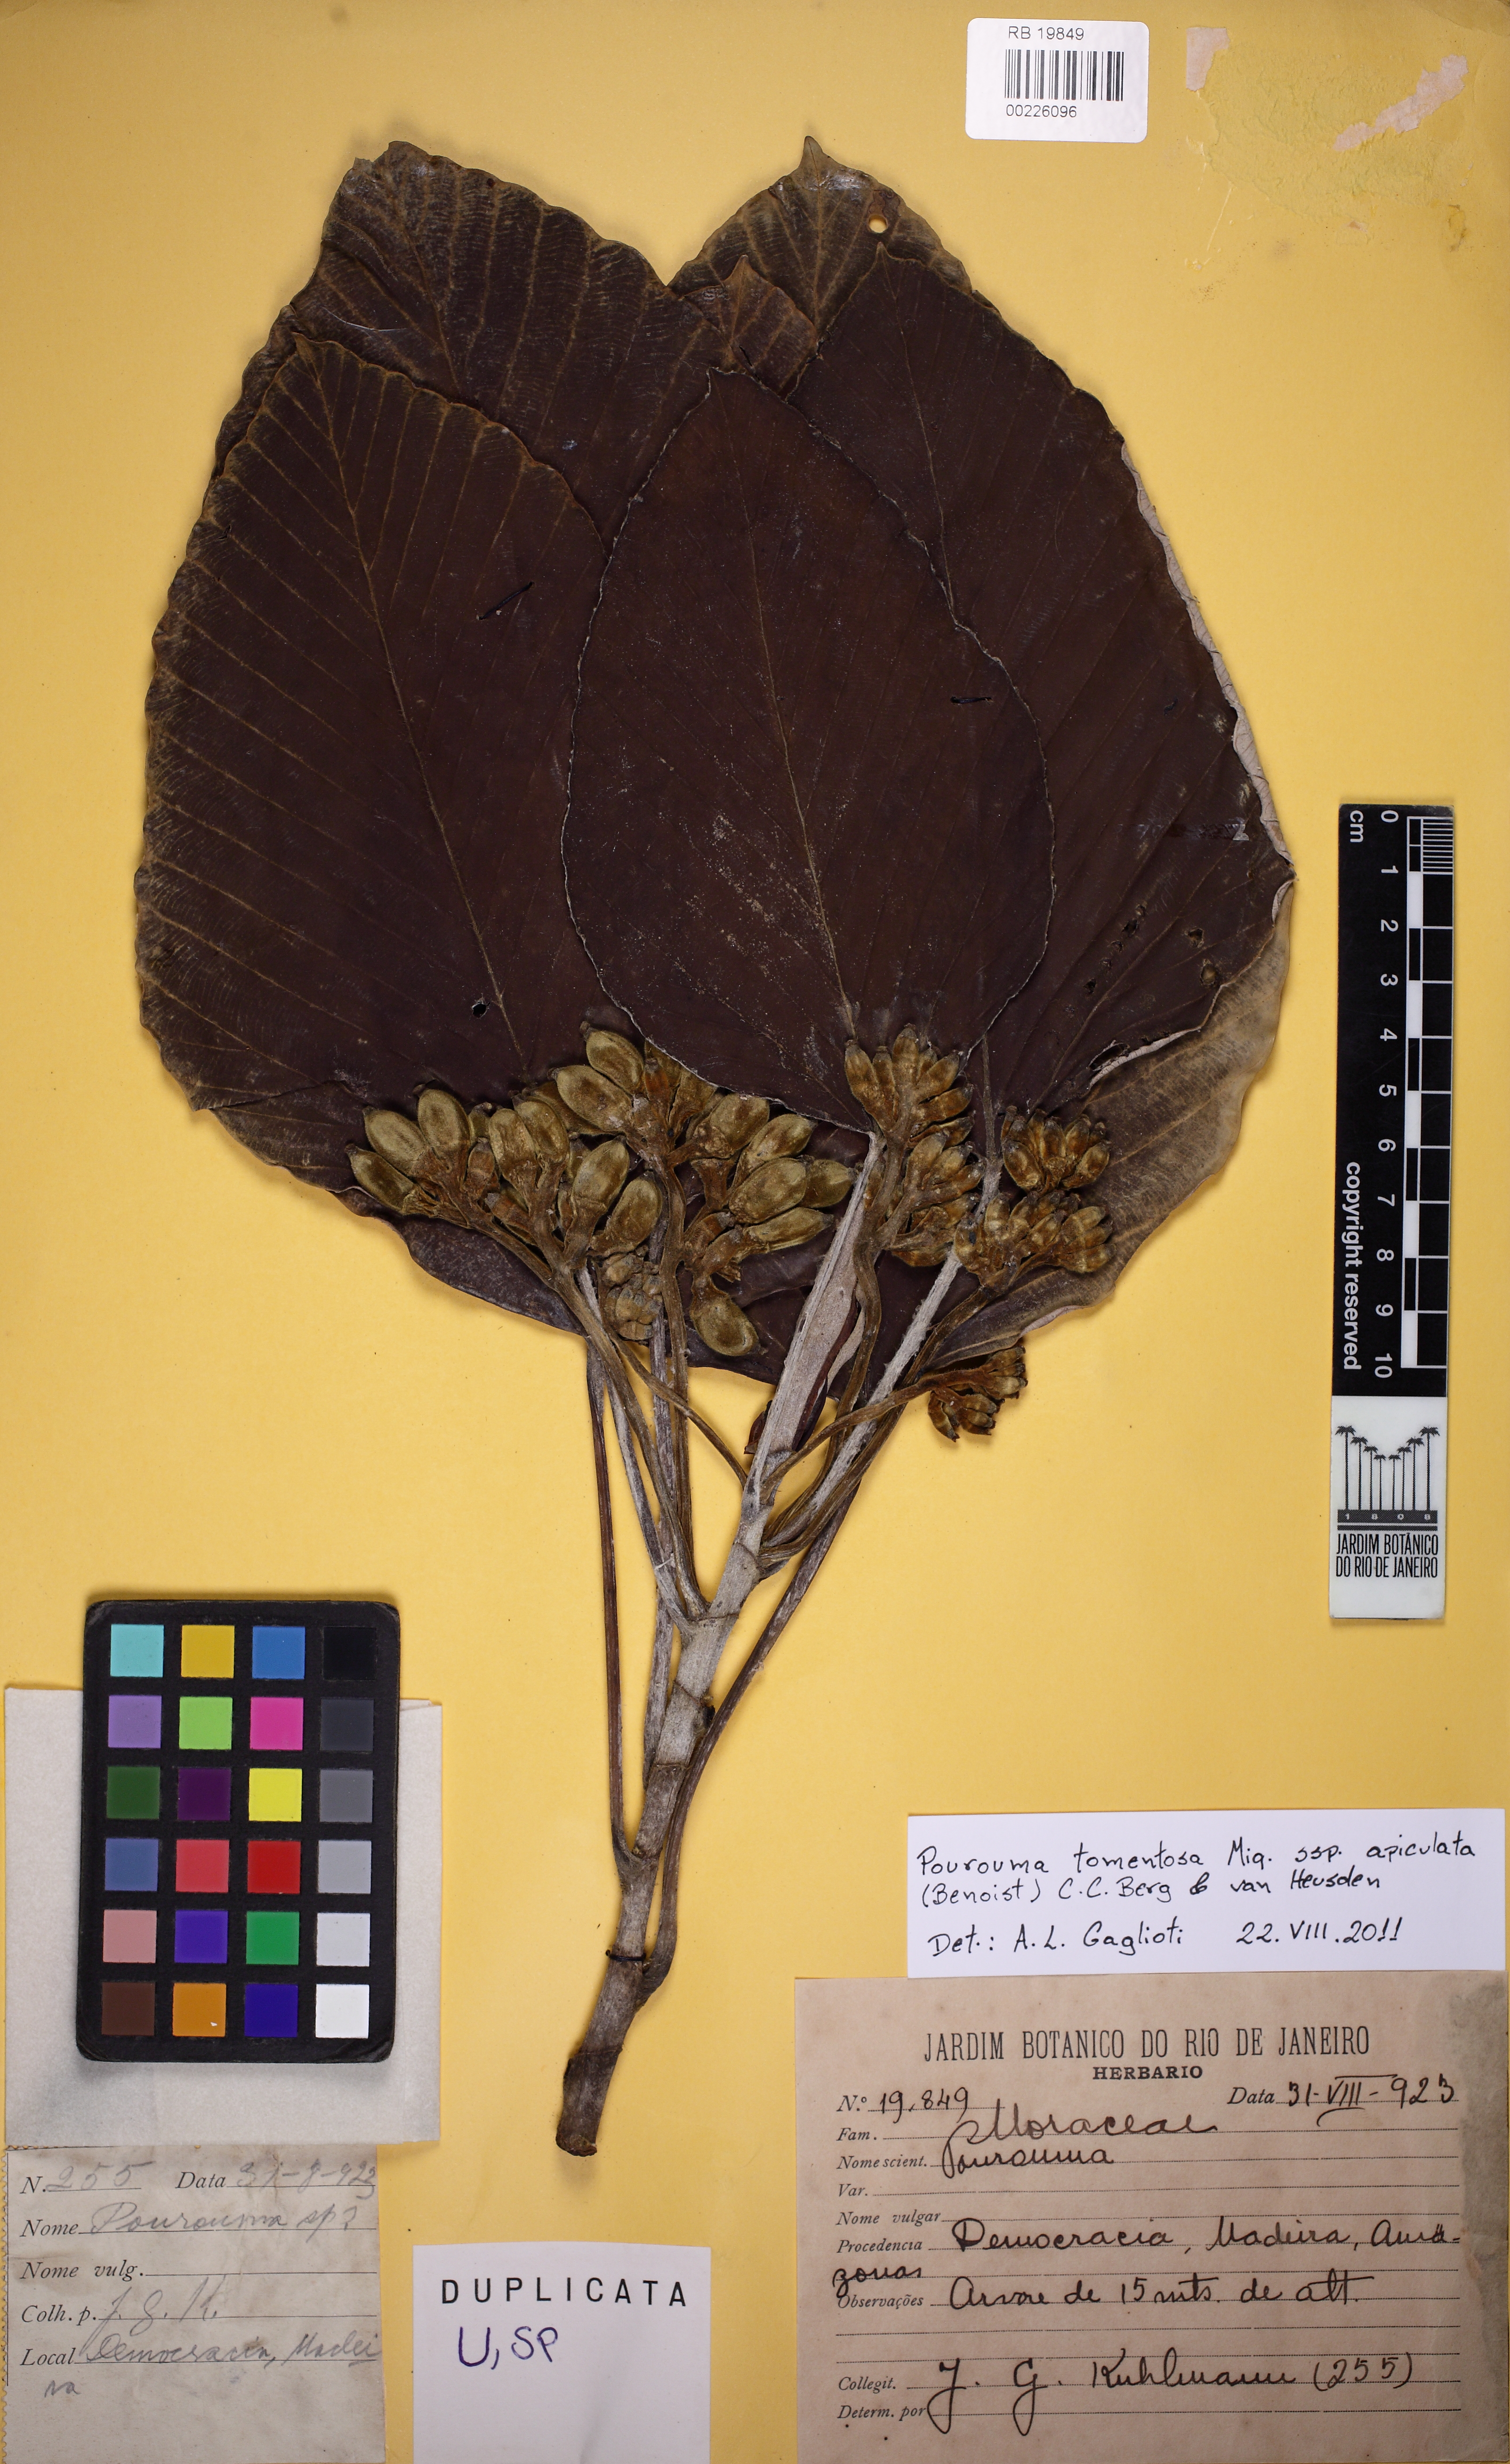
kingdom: Plantae
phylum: Tracheophyta
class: Magnoliopsida
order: Rosales
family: Urticaceae
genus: Pourouma
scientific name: Pourouma tomentosa
